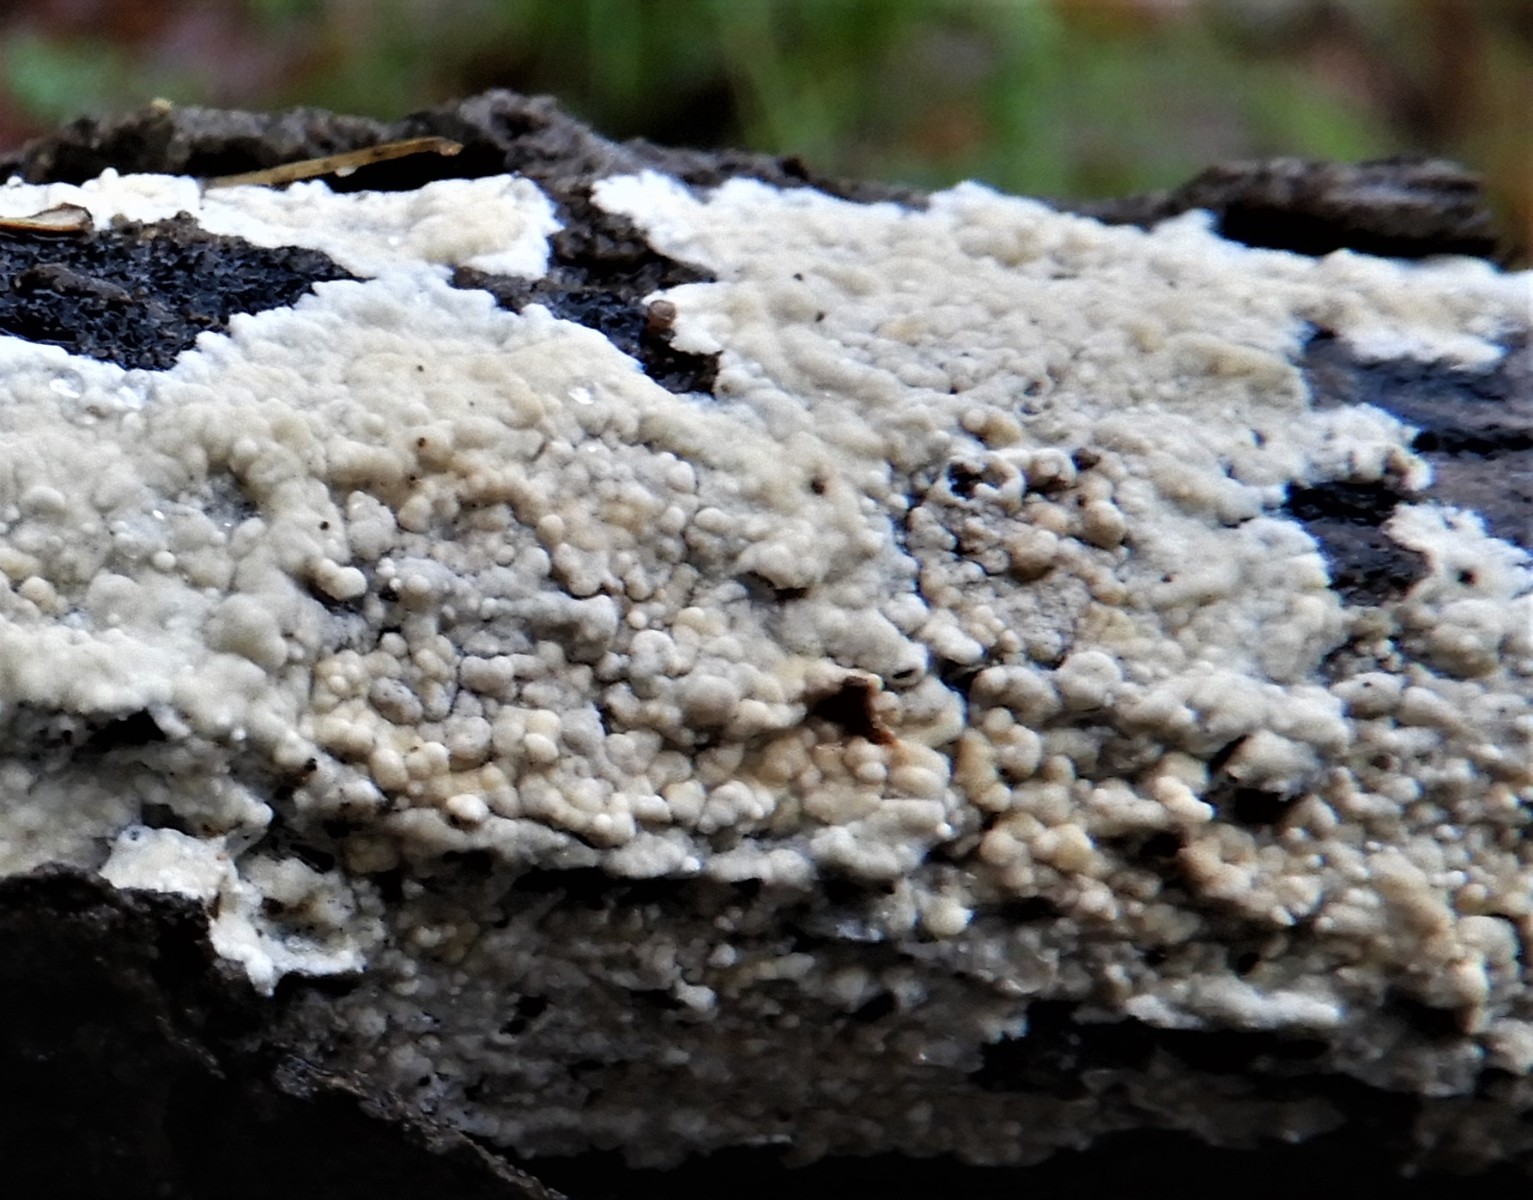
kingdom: Fungi
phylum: Basidiomycota
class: Agaricomycetes
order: Corticiales
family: Corticiaceae
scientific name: Corticiaceae
